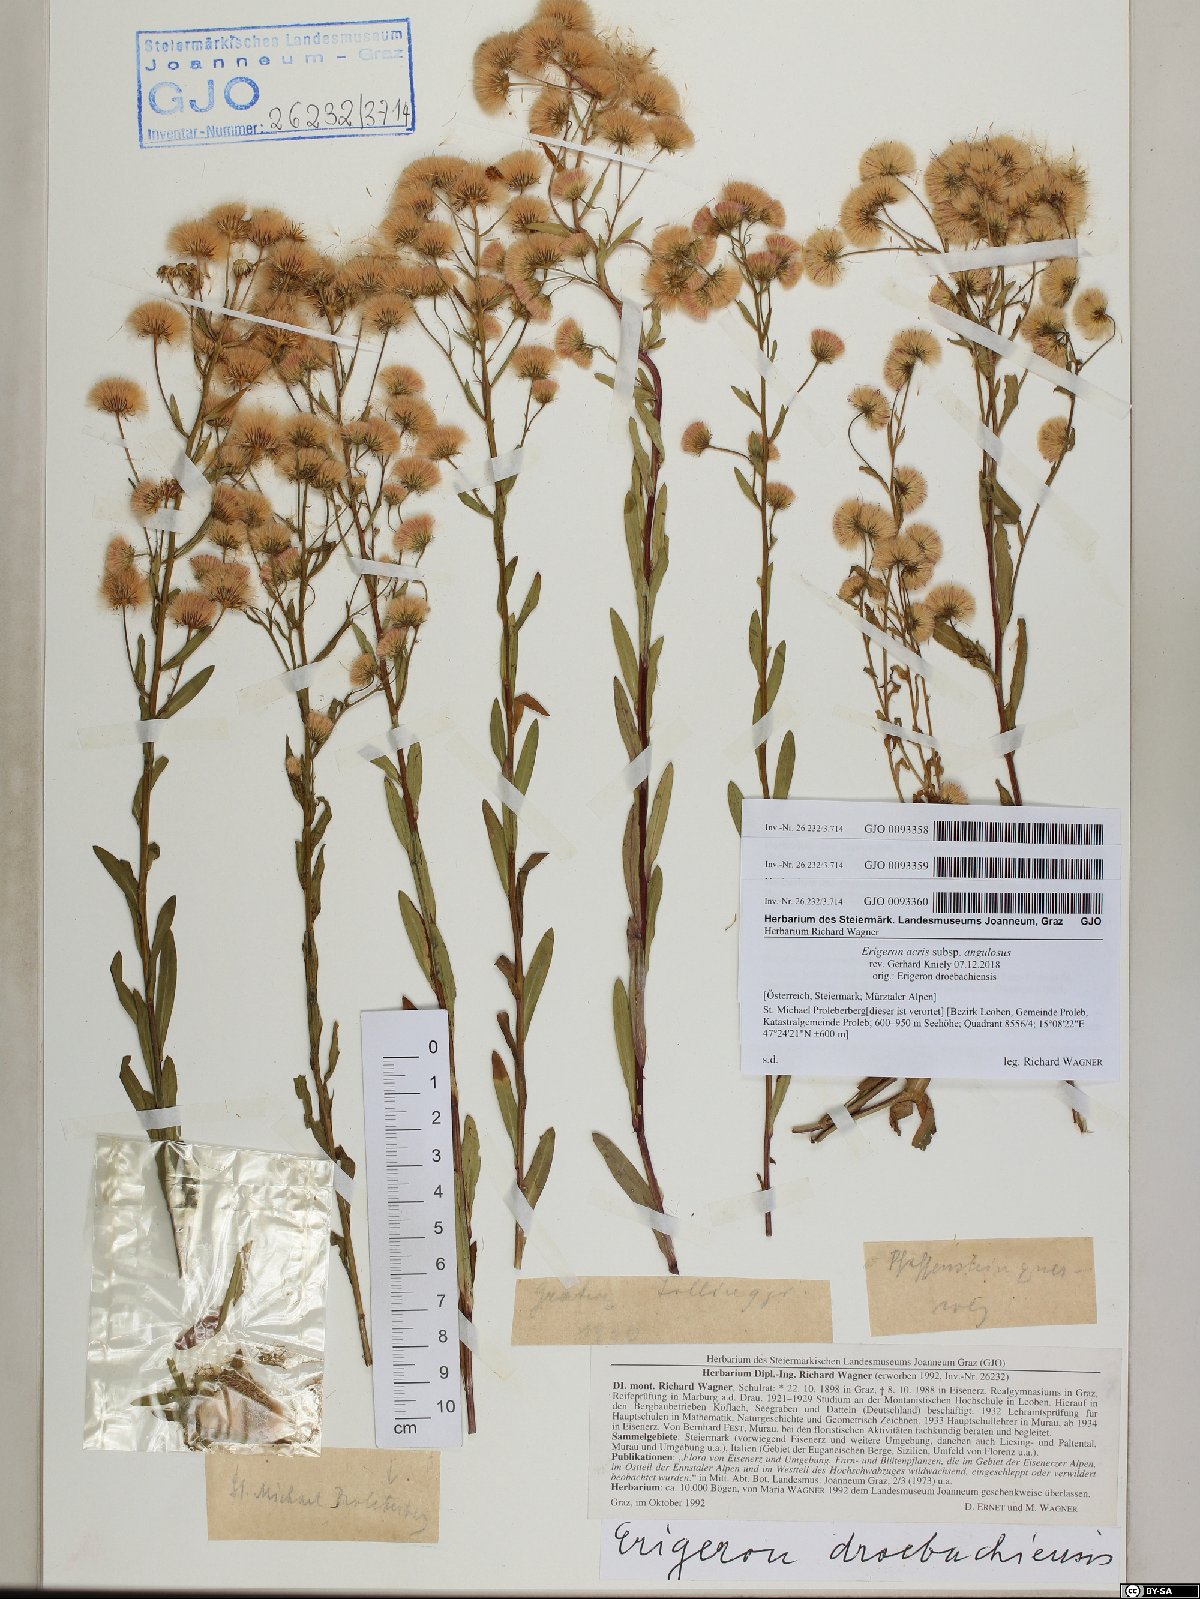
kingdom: Plantae
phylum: Tracheophyta
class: Magnoliopsida
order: Asterales
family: Asteraceae
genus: Erigeron
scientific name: Erigeron angulosus
